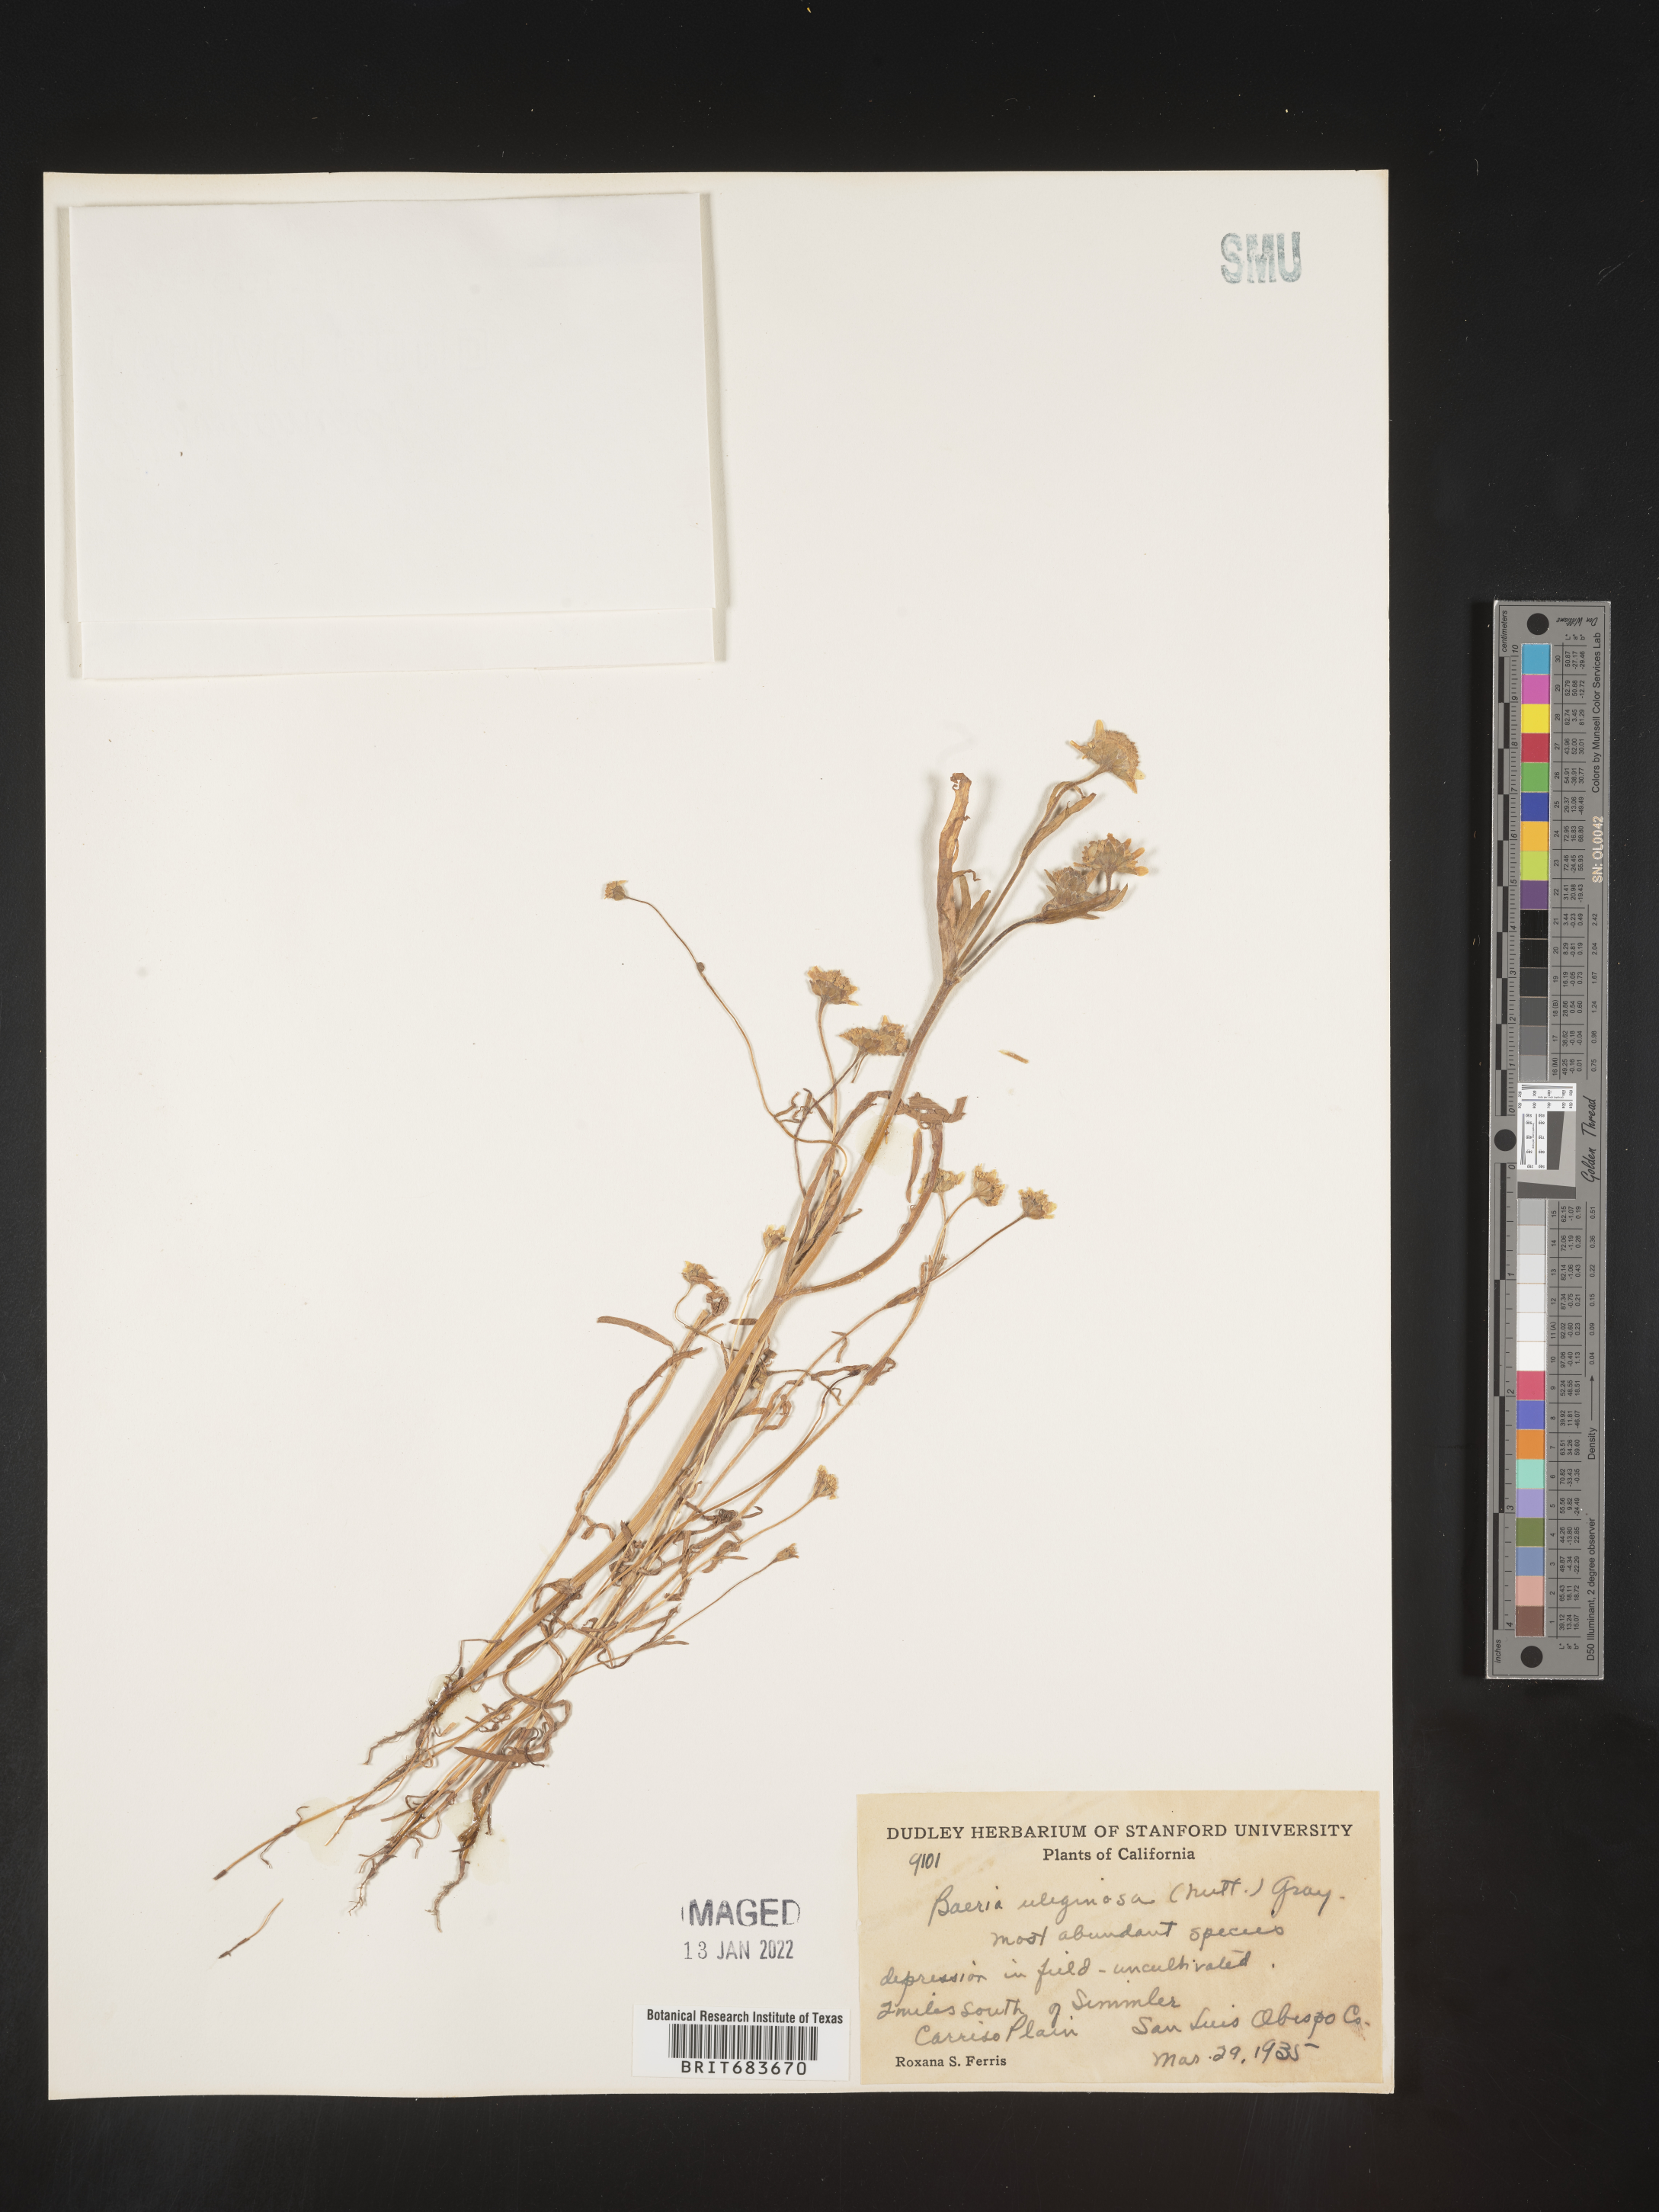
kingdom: Plantae
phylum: Tracheophyta
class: Magnoliopsida
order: Asterales
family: Asteraceae
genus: Lasthenia
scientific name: Lasthenia
